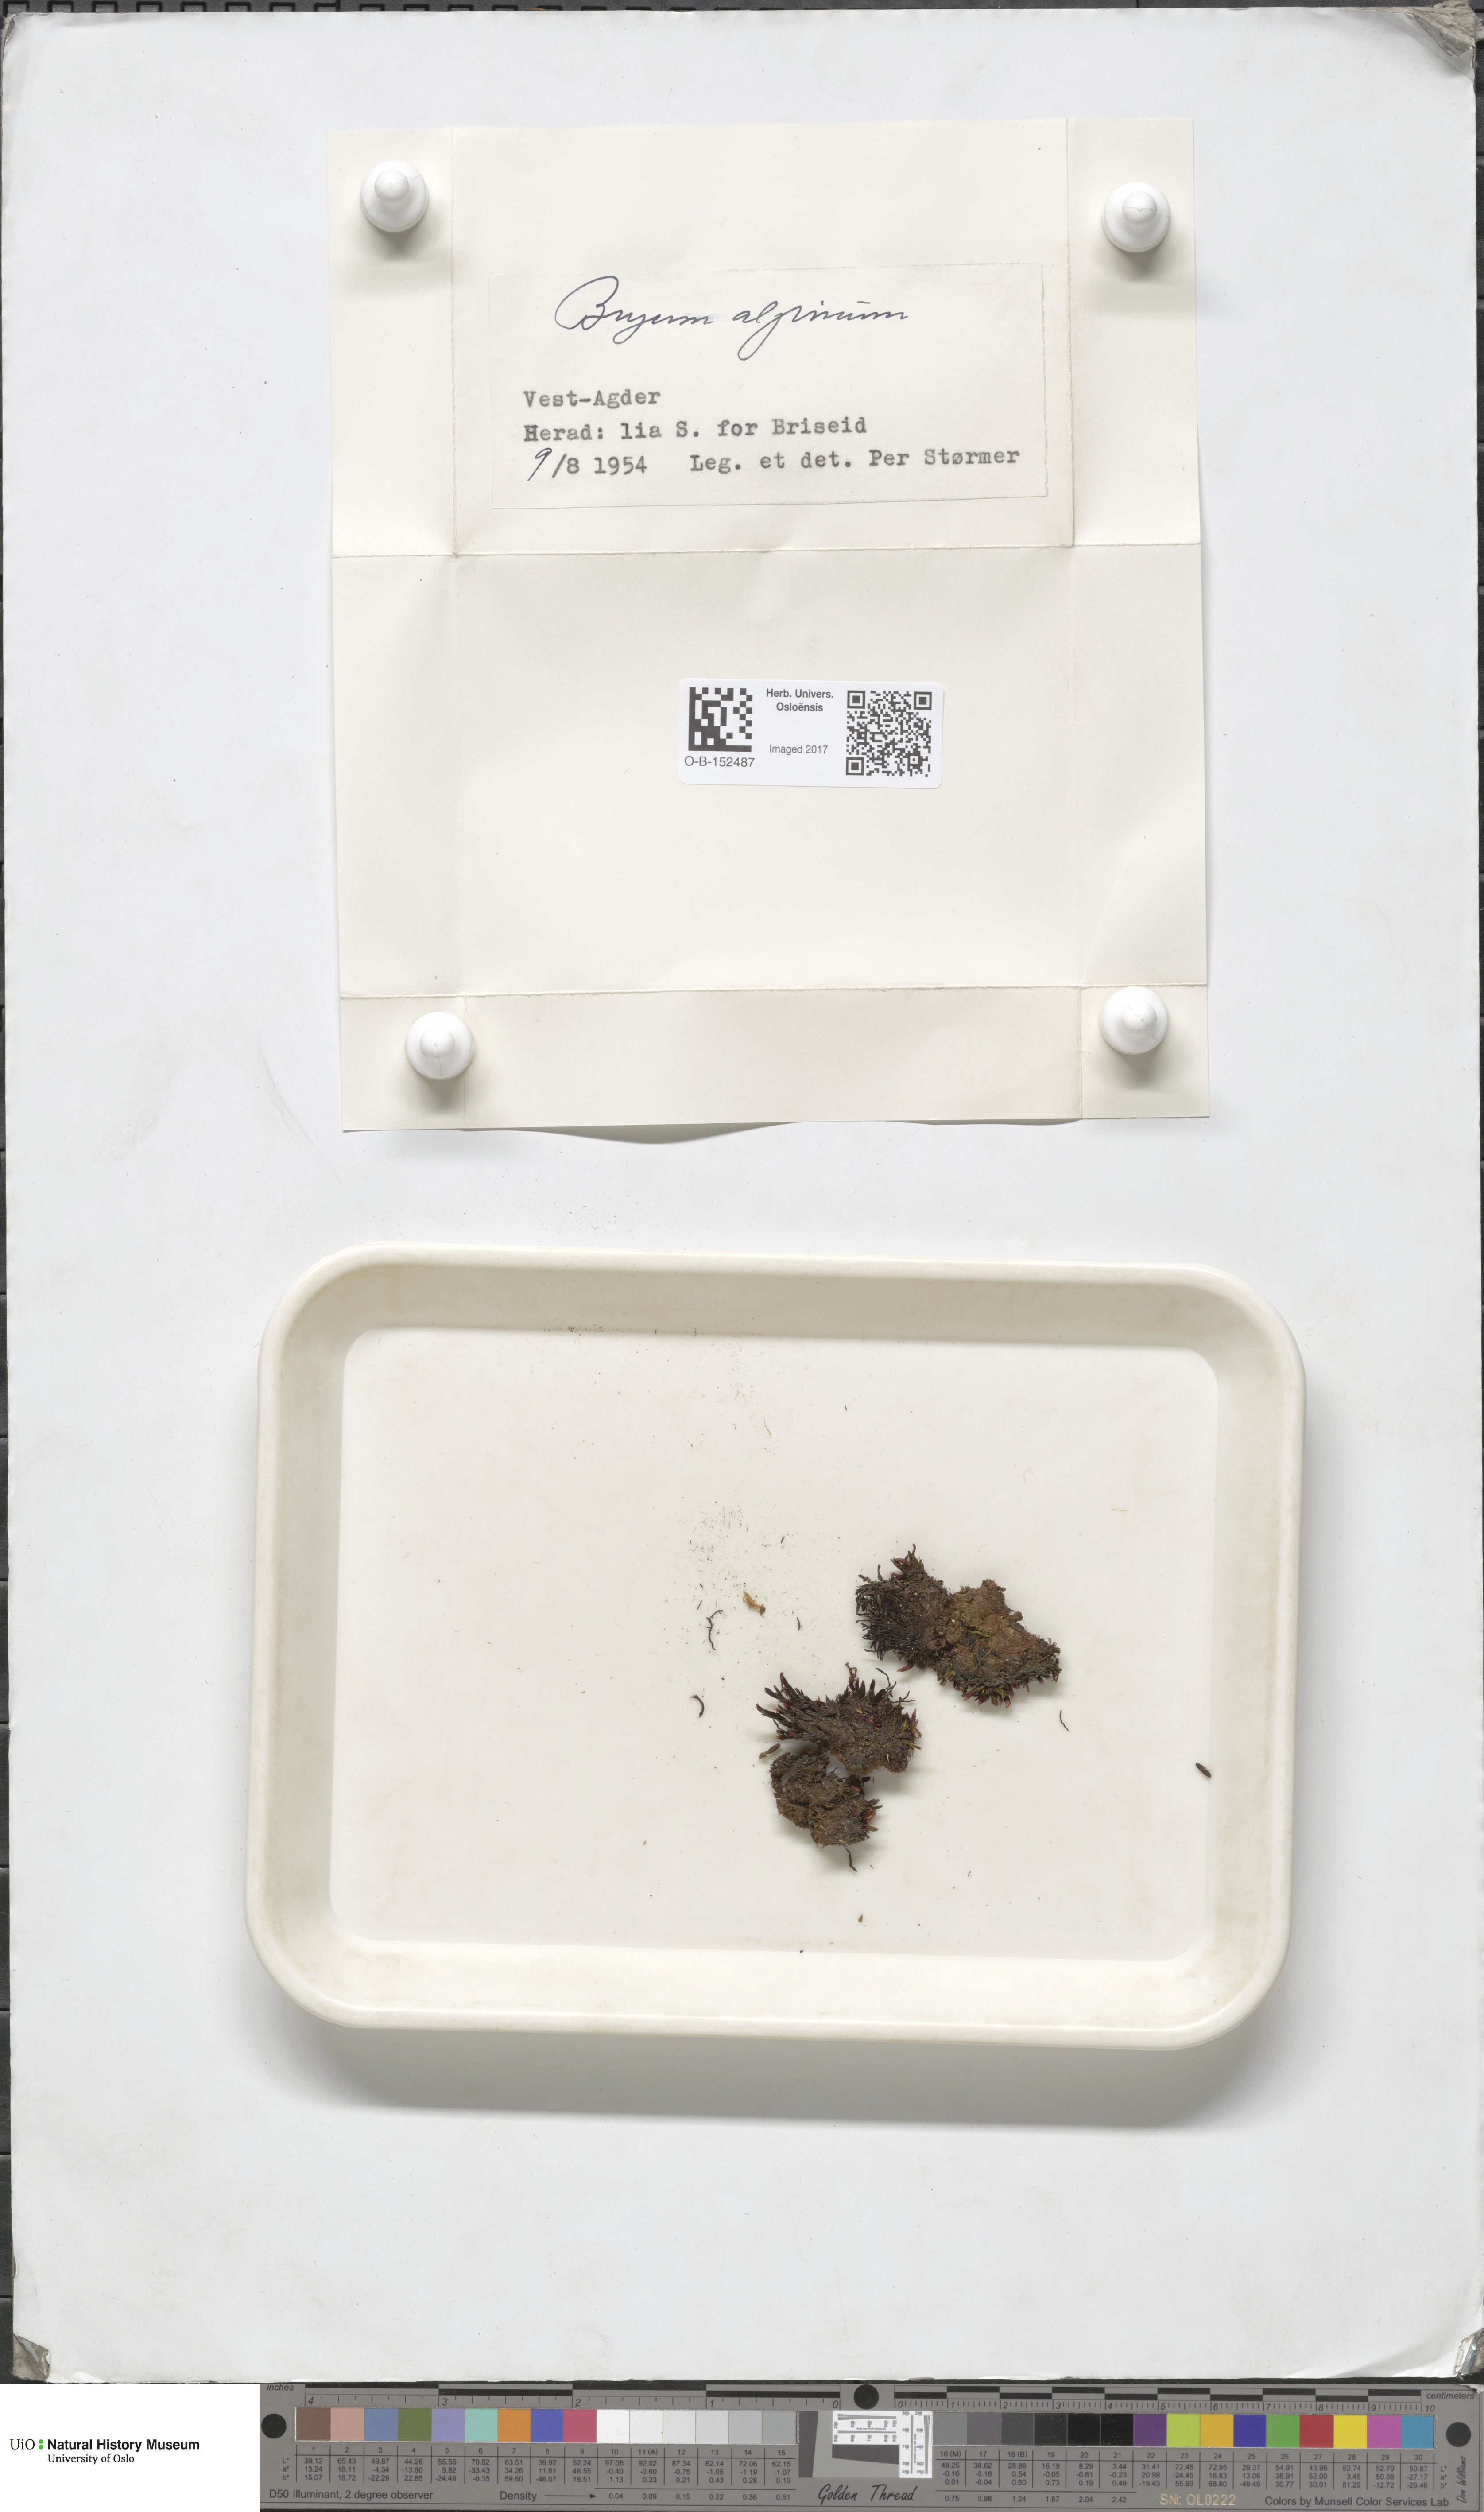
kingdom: Plantae
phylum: Bryophyta
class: Bryopsida
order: Bryales
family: Bryaceae
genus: Imbribryum
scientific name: Imbribryum alpinum
